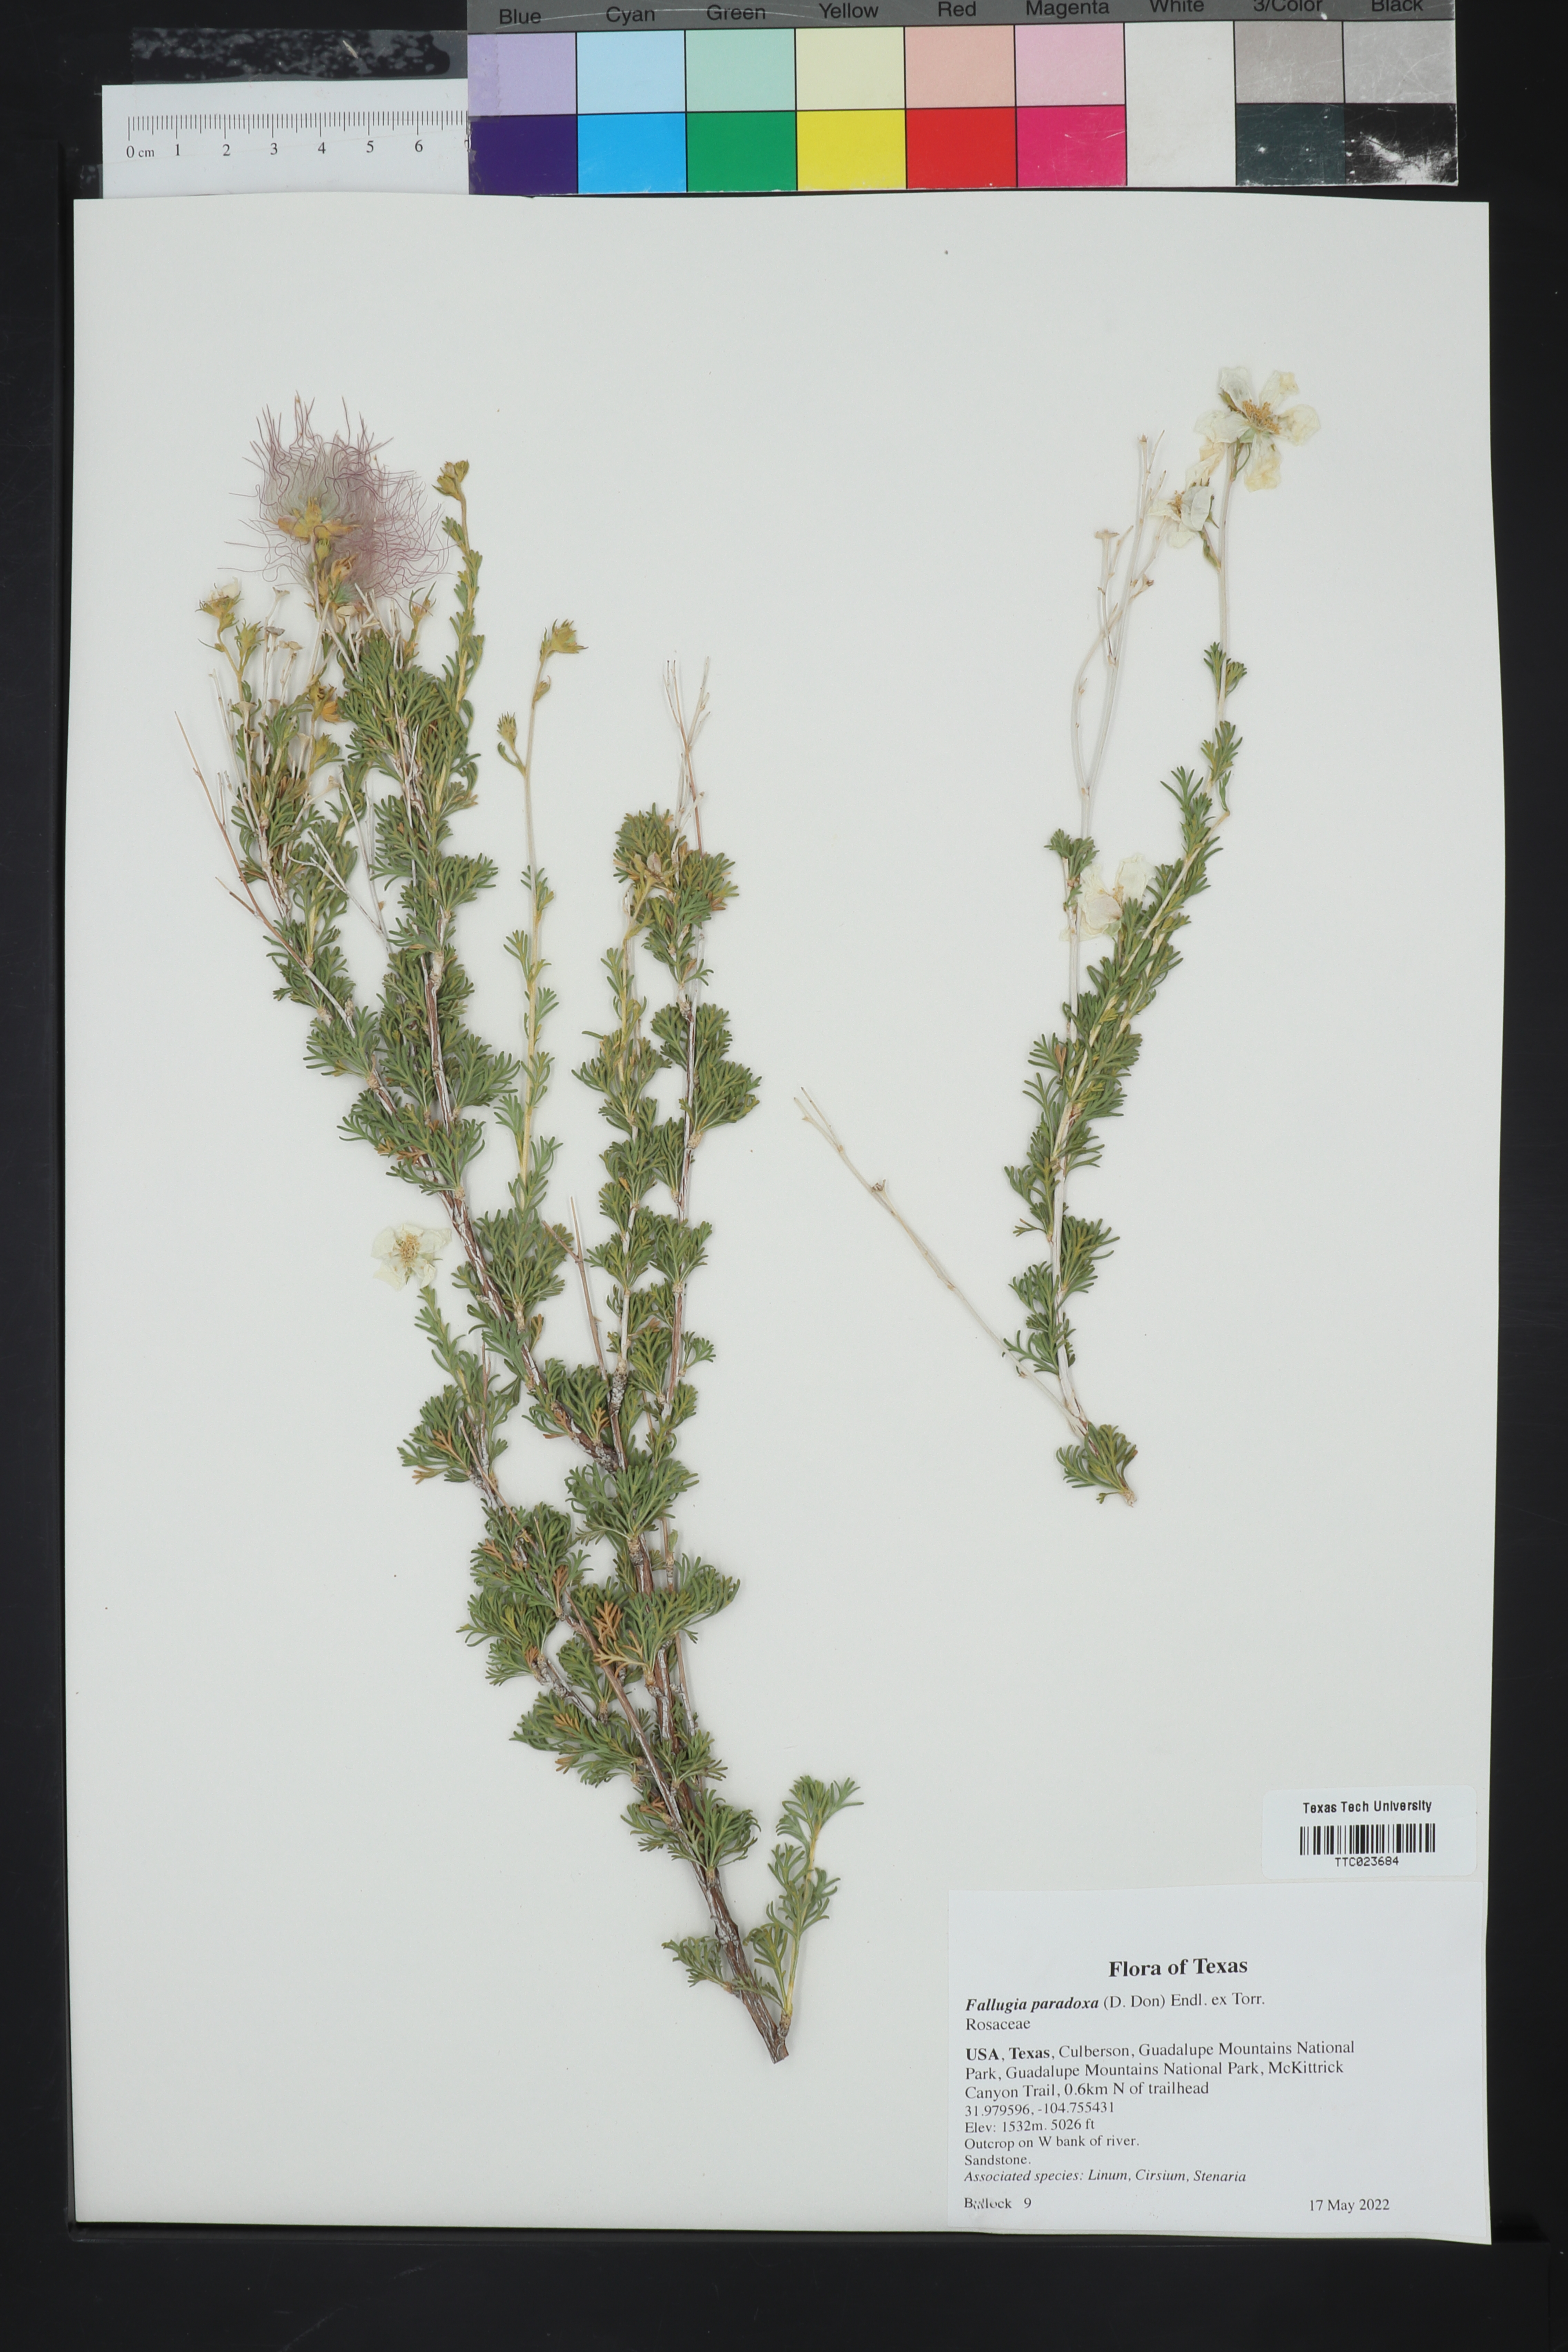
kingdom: Plantae
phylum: Tracheophyta
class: Magnoliopsida
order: Rosales
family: Rosaceae
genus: Fallugia
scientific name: Fallugia paradoxa
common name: Apache-plume
